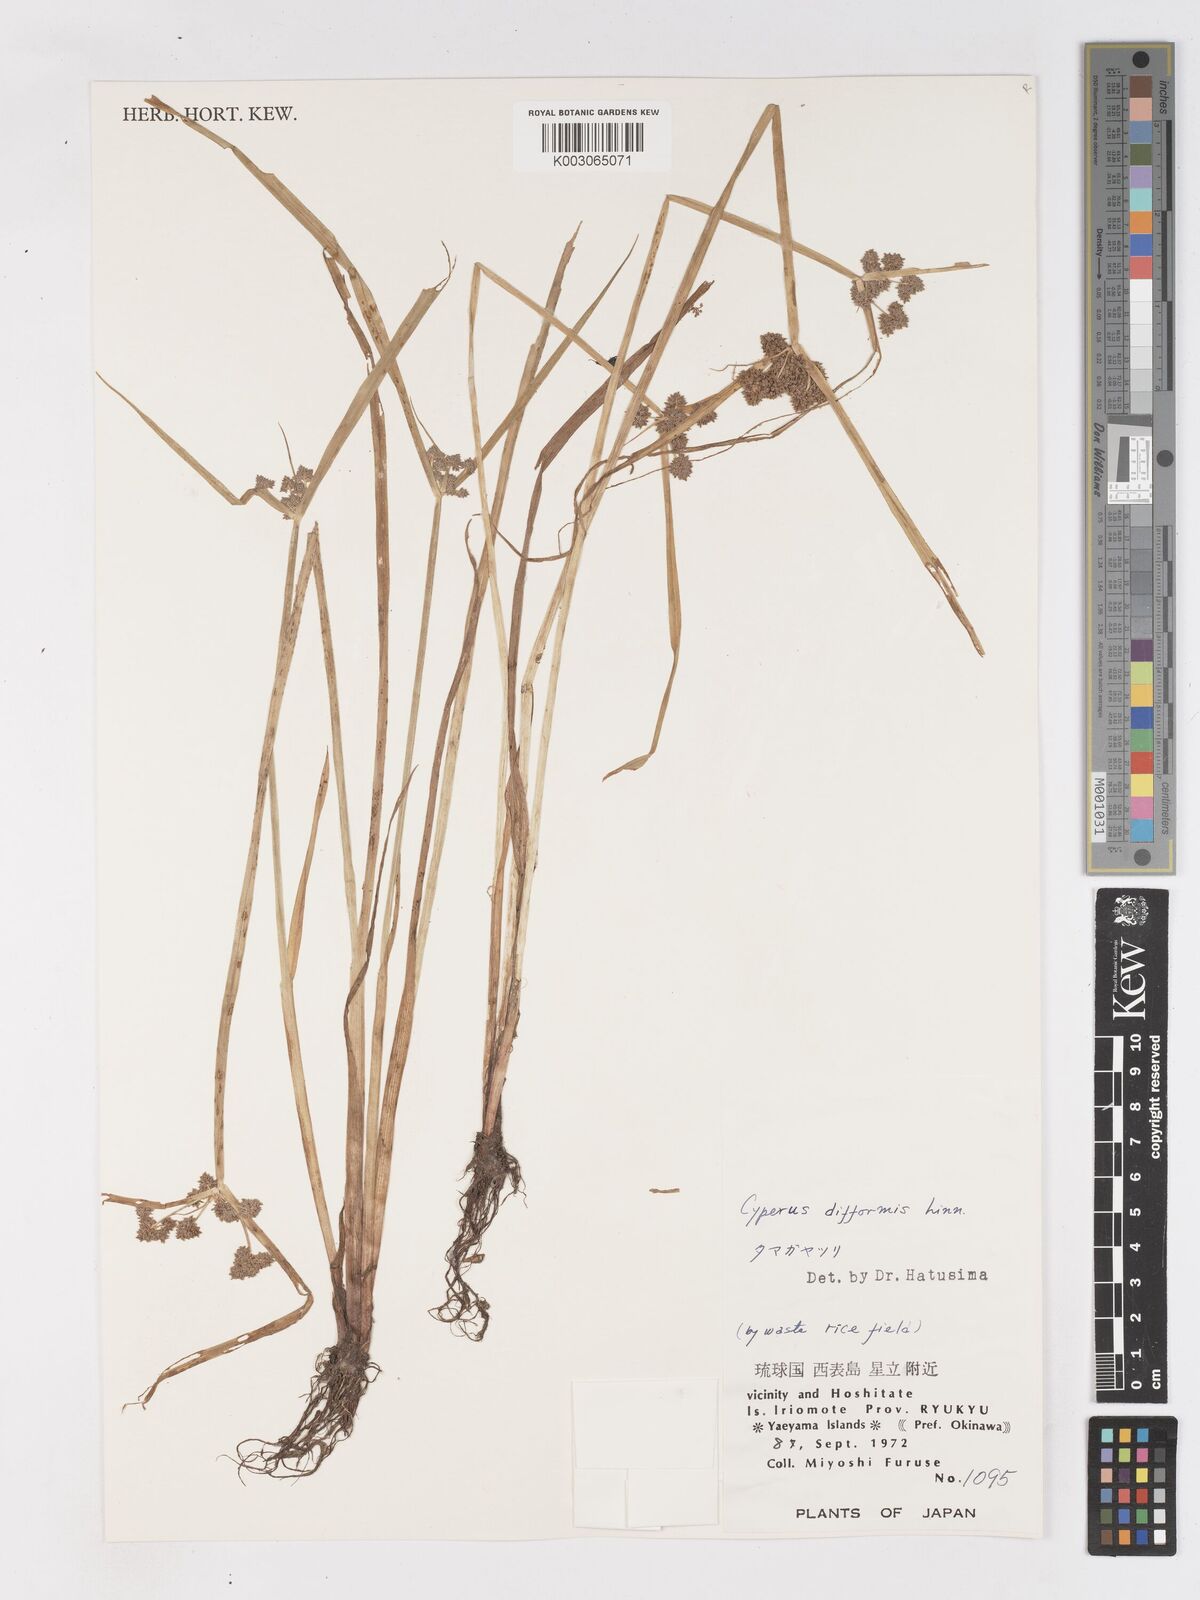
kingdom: Plantae
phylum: Tracheophyta
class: Liliopsida
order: Poales
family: Cyperaceae
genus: Cyperus
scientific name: Cyperus difformis
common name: Variable flatsedge
